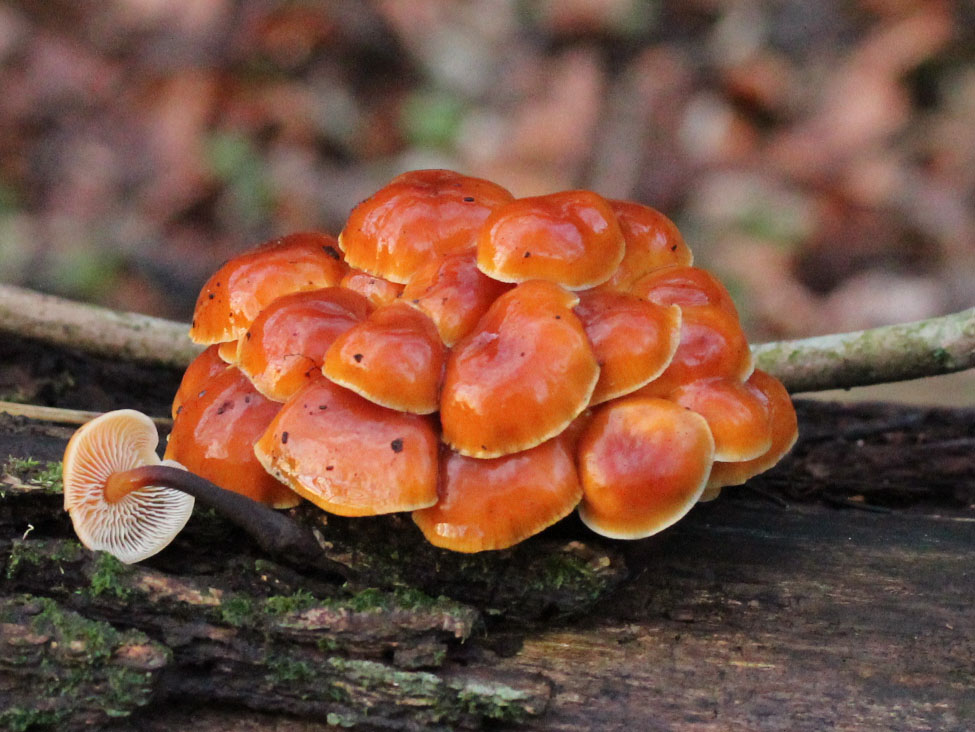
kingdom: Fungi
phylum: Basidiomycota
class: Agaricomycetes
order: Agaricales
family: Physalacriaceae
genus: Flammulina
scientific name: Flammulina velutipes
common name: gul fløjlsfod
